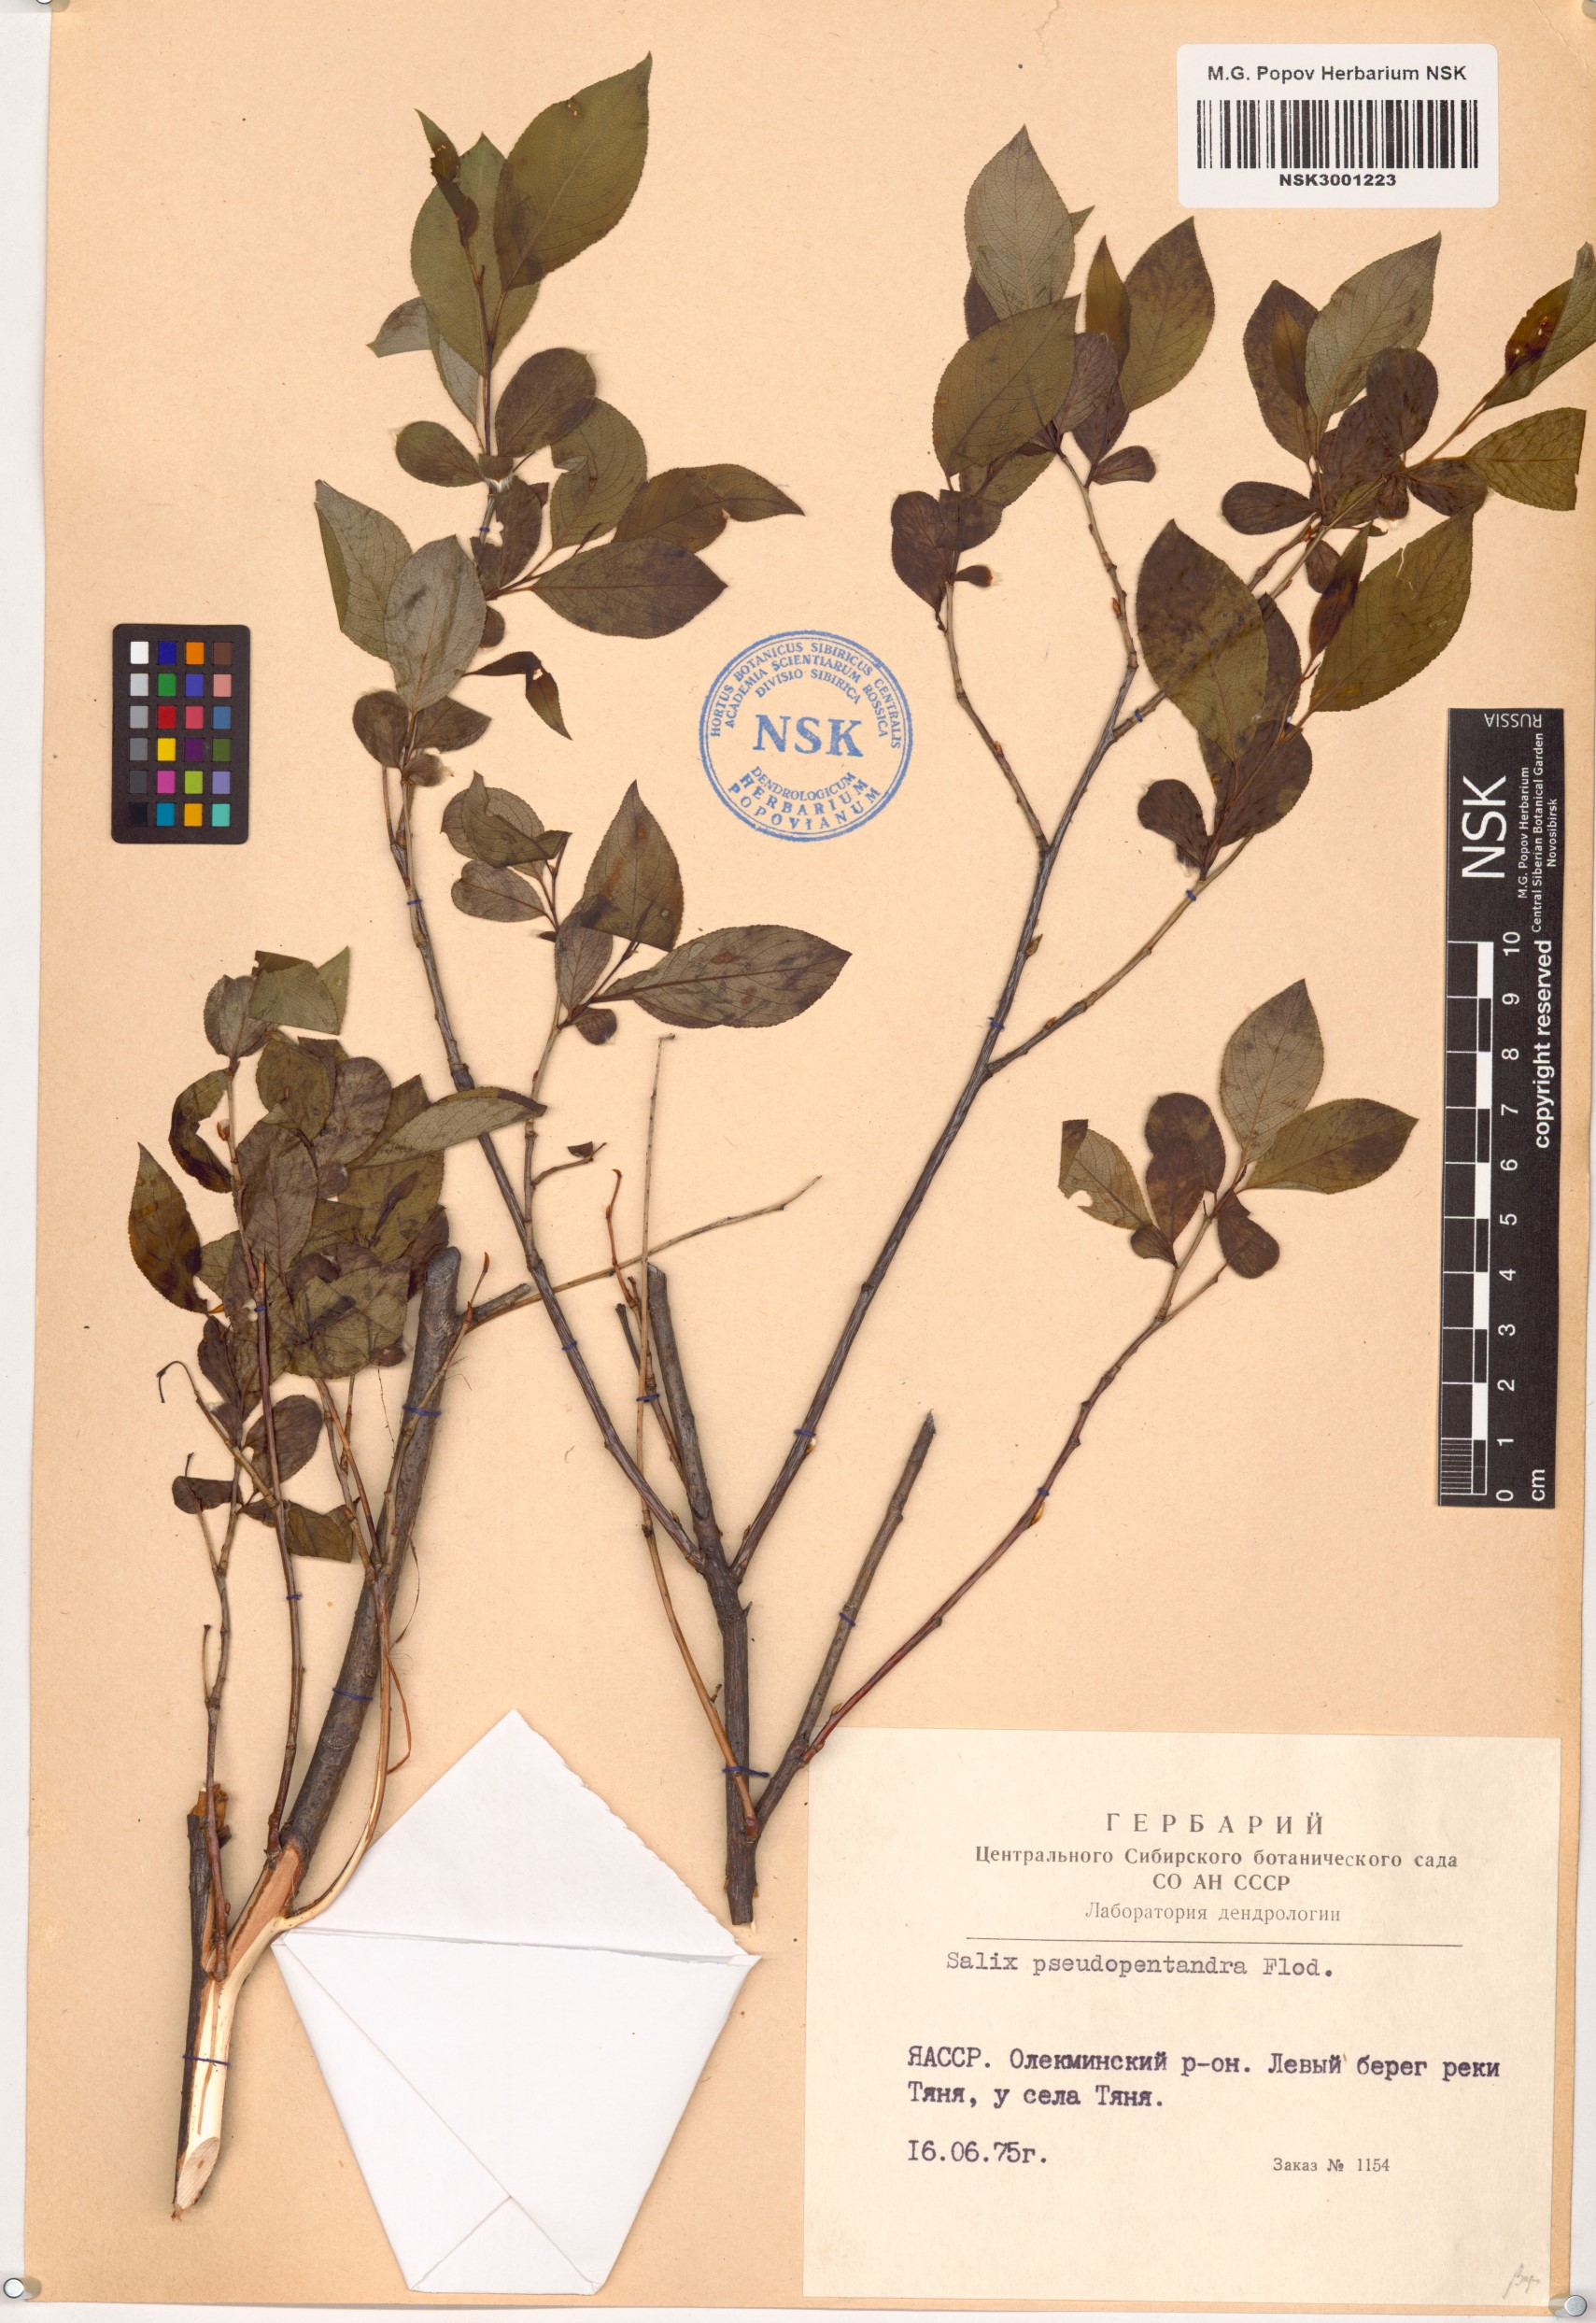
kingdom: Plantae
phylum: Tracheophyta
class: Magnoliopsida
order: Malpighiales
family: Salicaceae
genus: Salix
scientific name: Salix pseudopentandra
